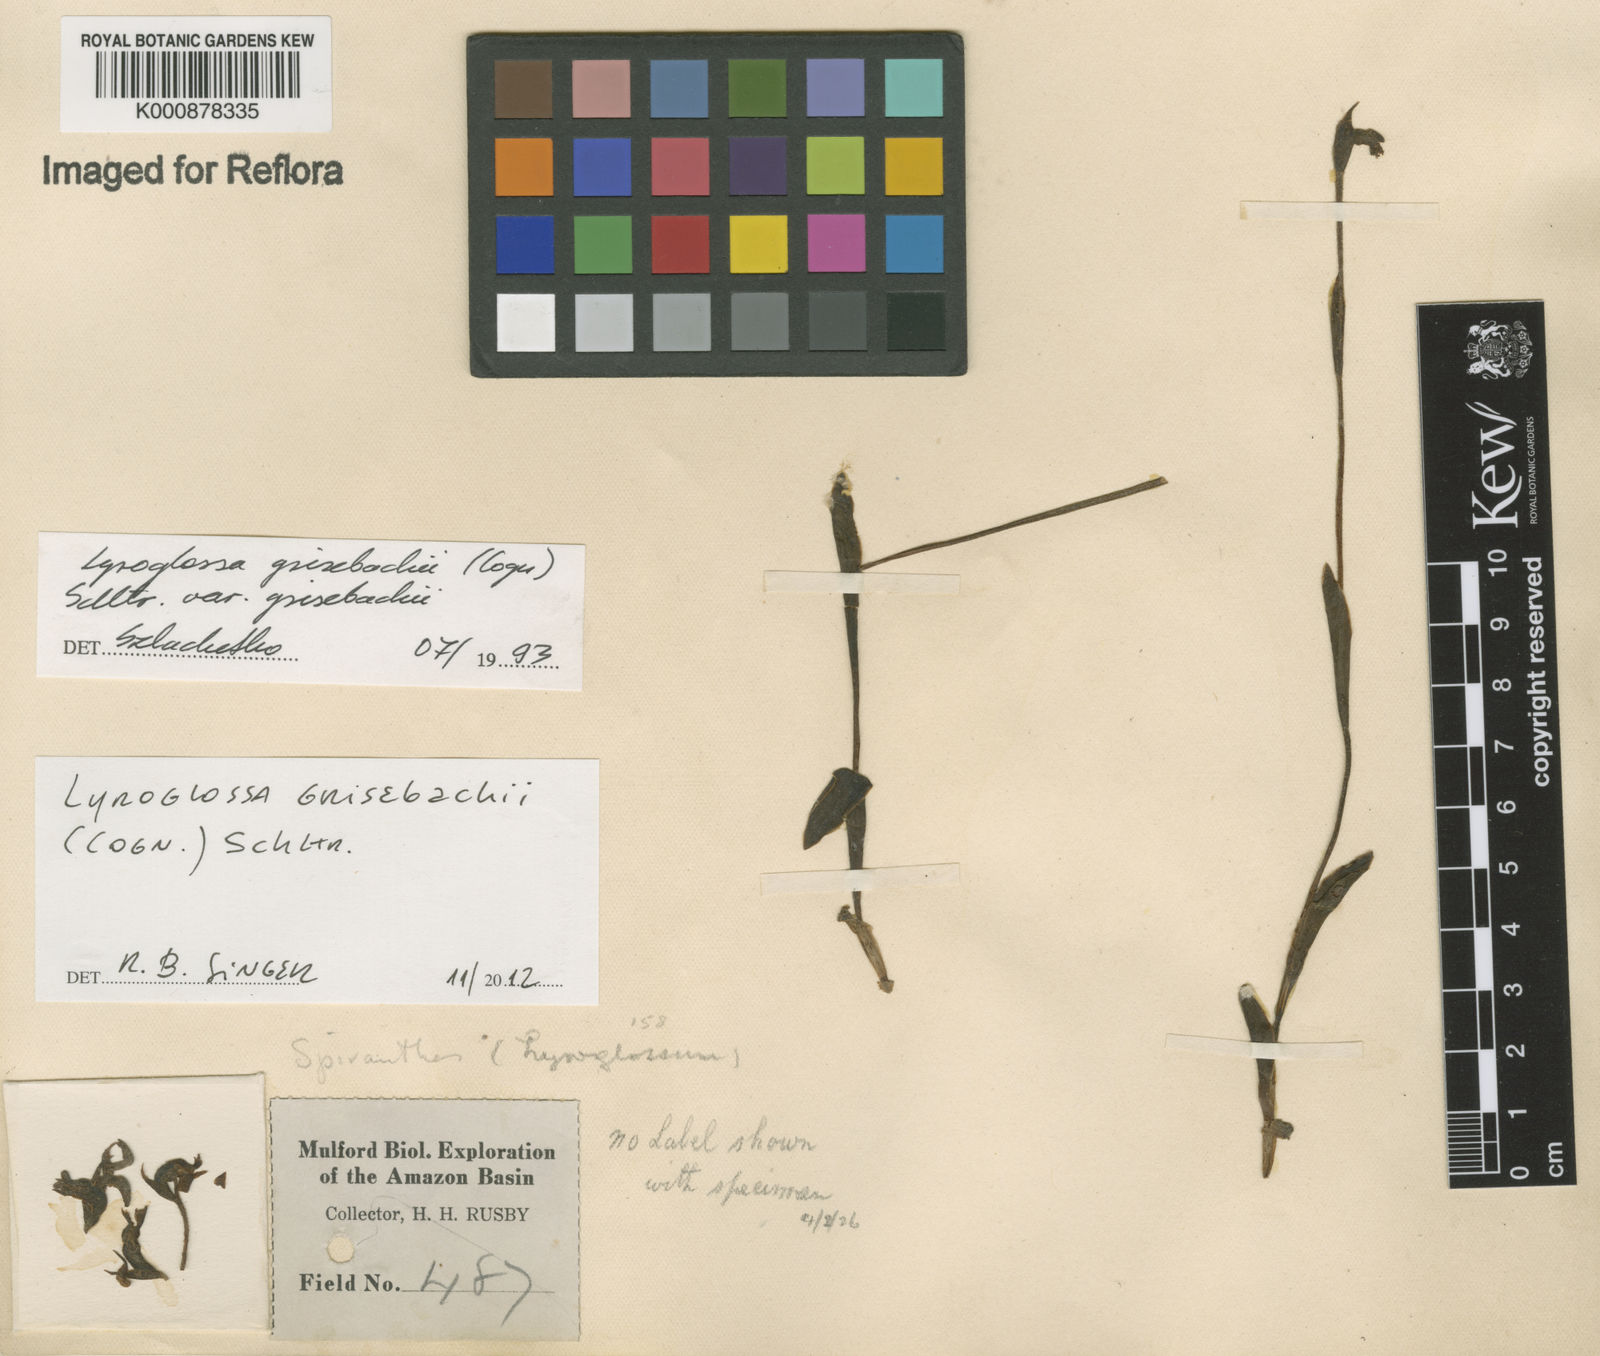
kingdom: Plantae
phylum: Tracheophyta
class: Liliopsida
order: Asparagales
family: Orchidaceae
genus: Lyroglossa
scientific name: Lyroglossa grisebachii
